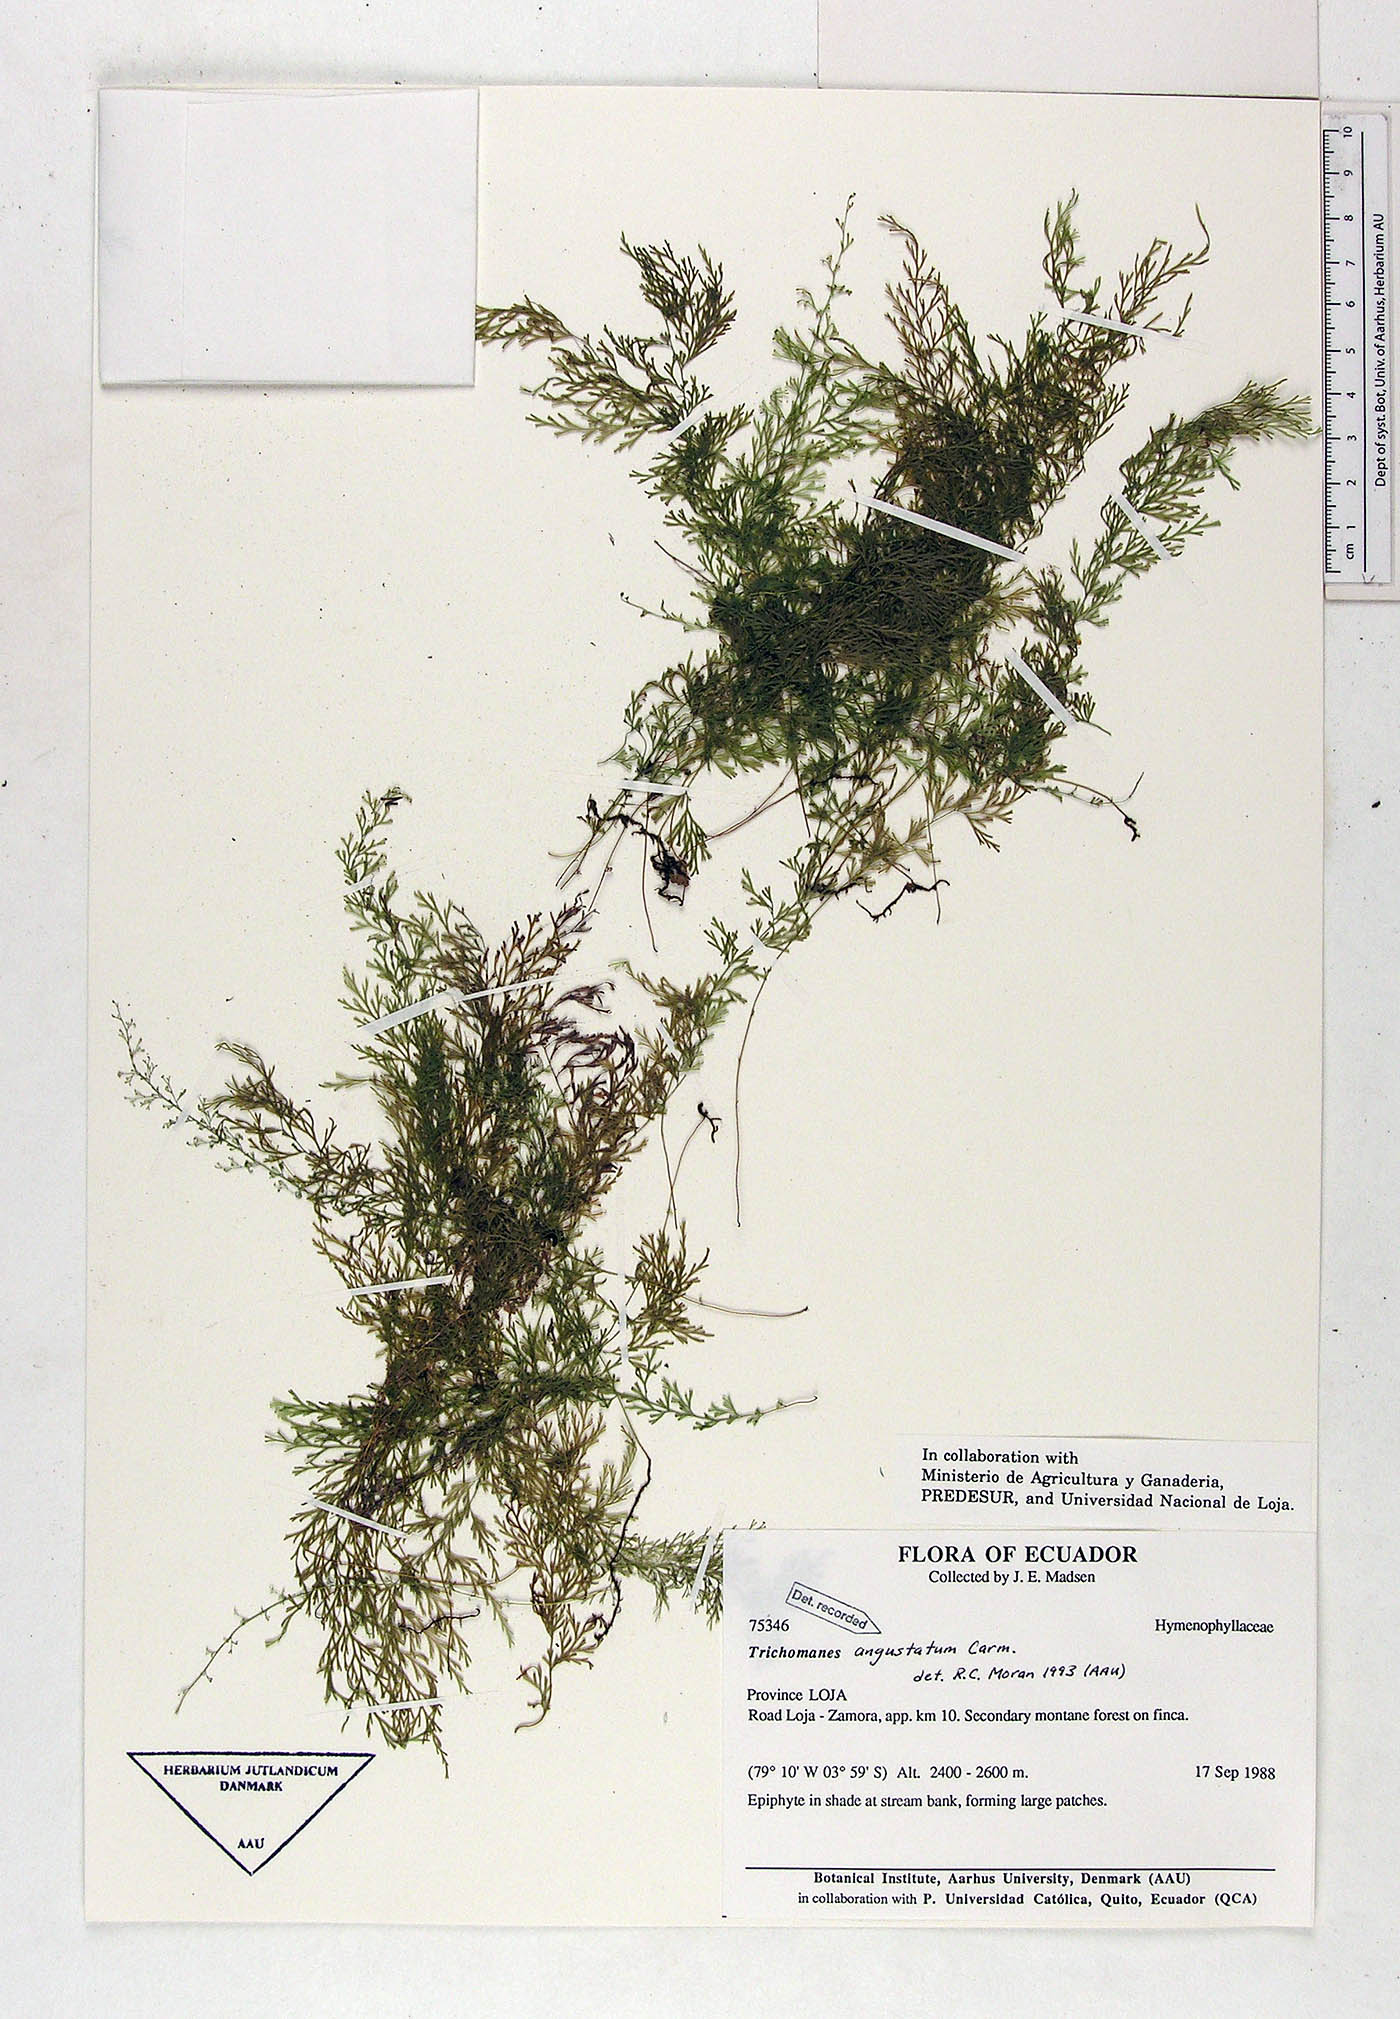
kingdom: Plantae
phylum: Tracheophyta
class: Polypodiopsida
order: Hymenophyllales
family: Hymenophyllaceae
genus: Polyphlebium
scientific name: Polyphlebium angustatum
